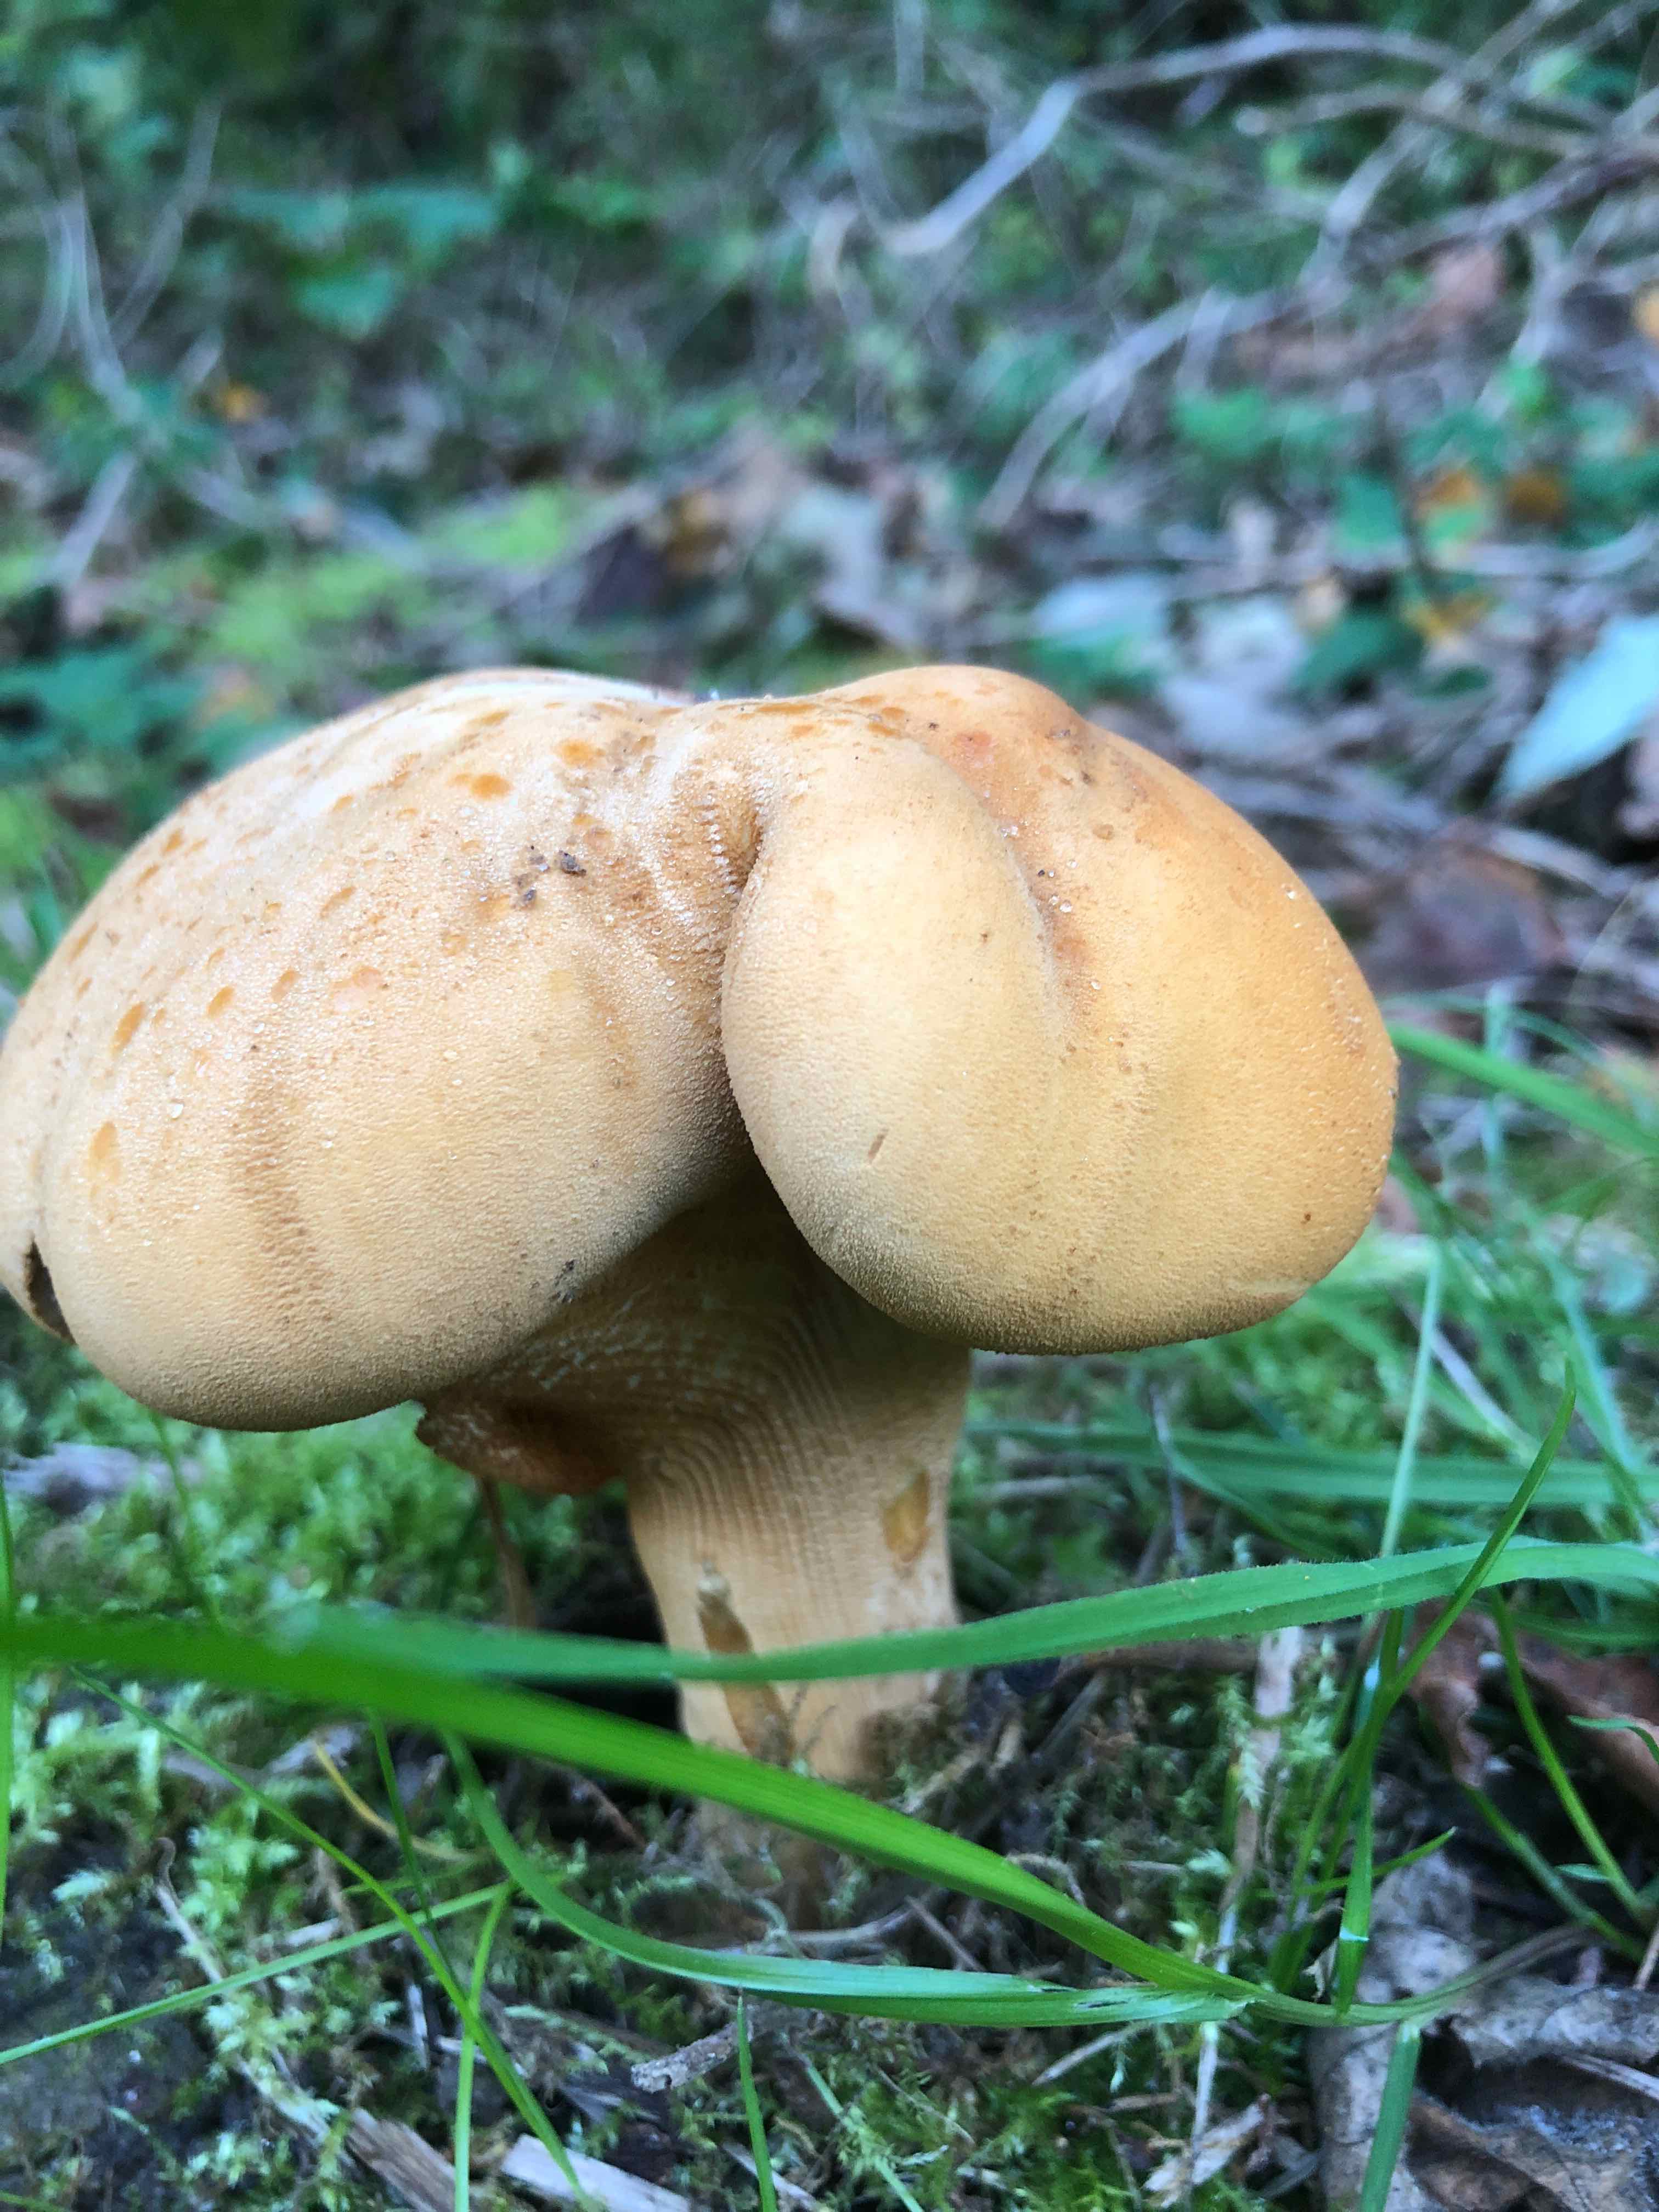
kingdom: Fungi
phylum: Basidiomycota
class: Agaricomycetes
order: Agaricales
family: Tricholomataceae
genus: Phaeolepiota
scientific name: Phaeolepiota aurea
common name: gyldenhat
